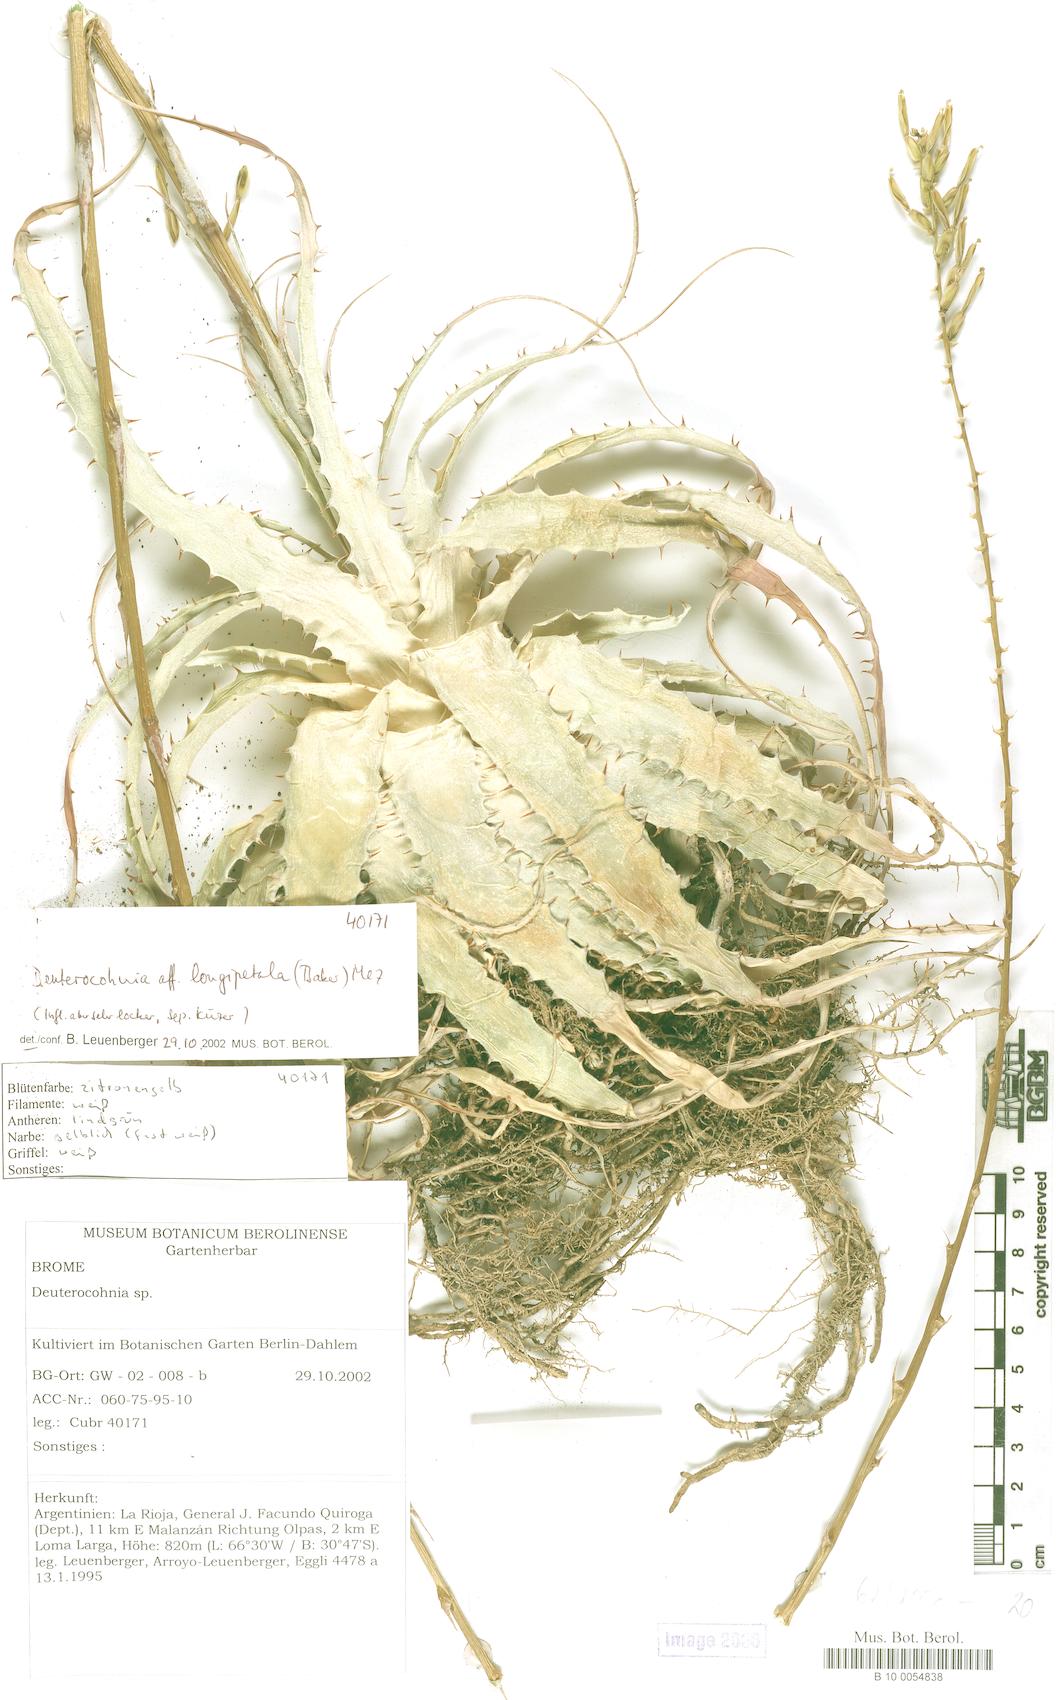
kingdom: Plantae
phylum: Tracheophyta
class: Liliopsida
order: Poales
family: Bromeliaceae
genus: Deuterocohnia
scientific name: Deuterocohnia longipetala
